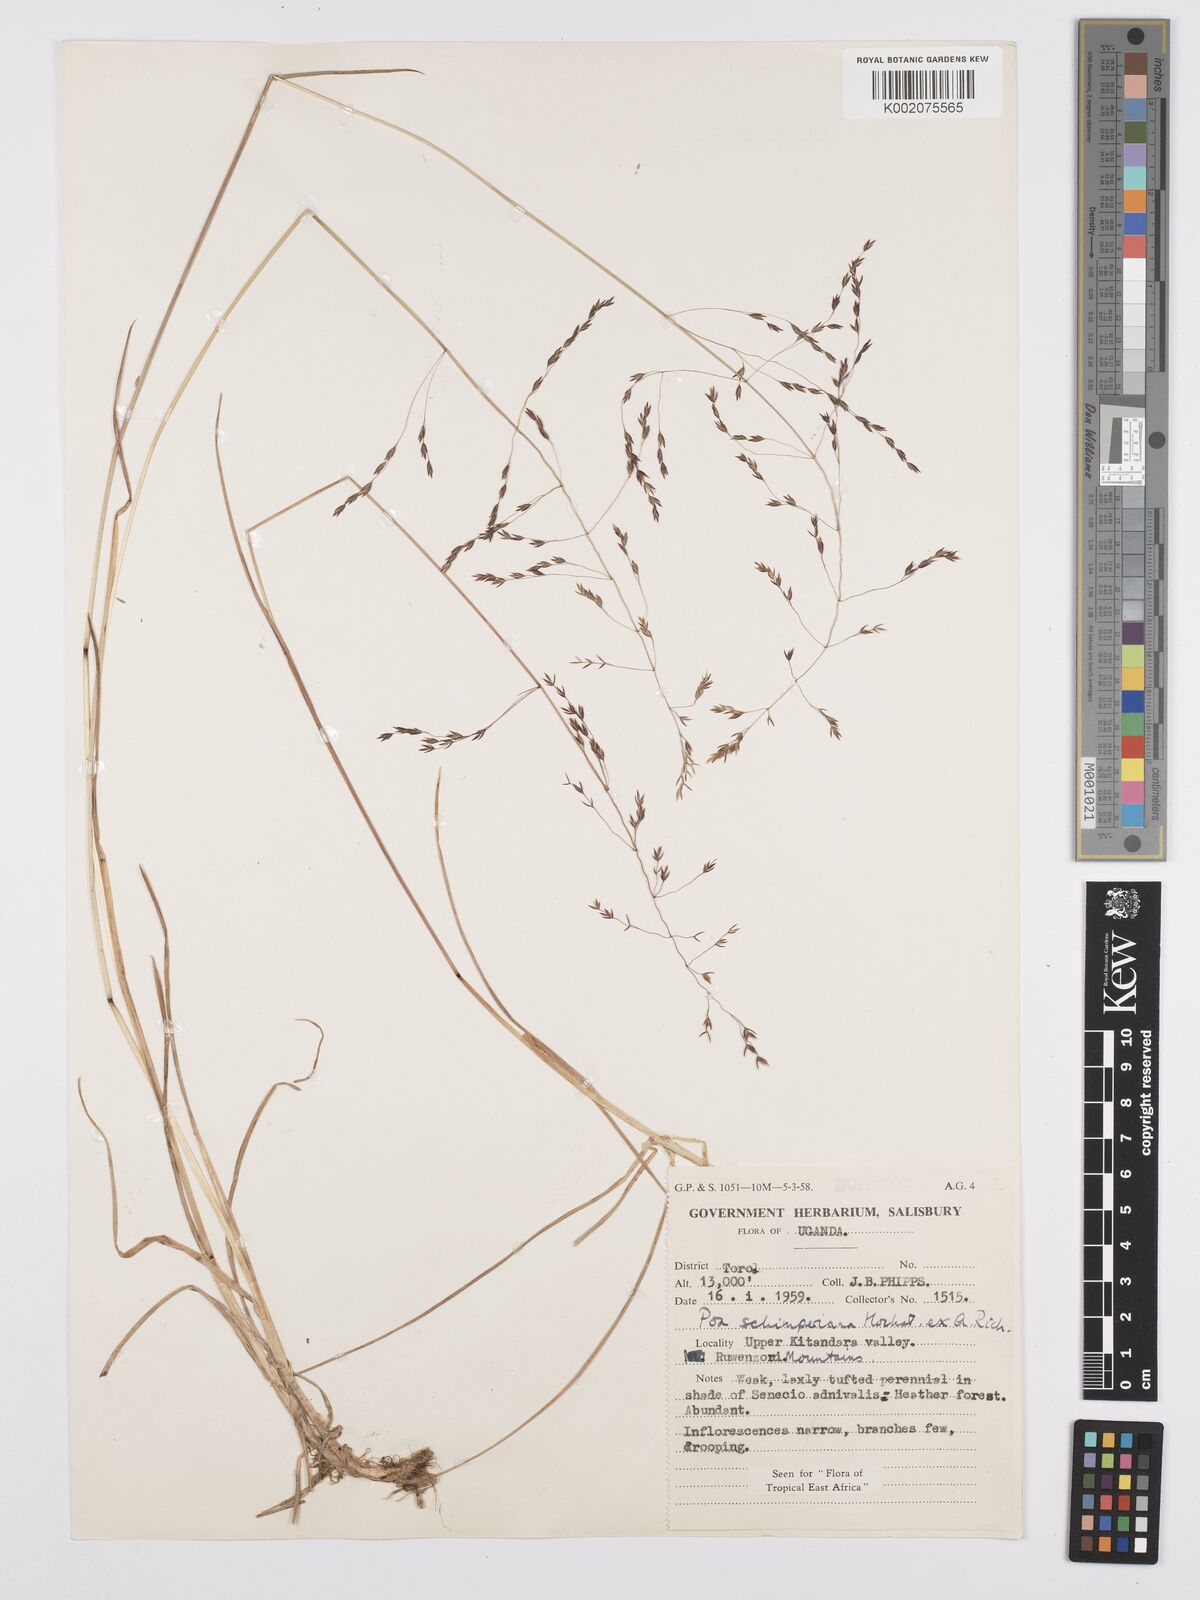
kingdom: Plantae
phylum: Tracheophyta
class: Liliopsida
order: Poales
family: Poaceae
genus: Poa
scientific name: Poa schimperiana
